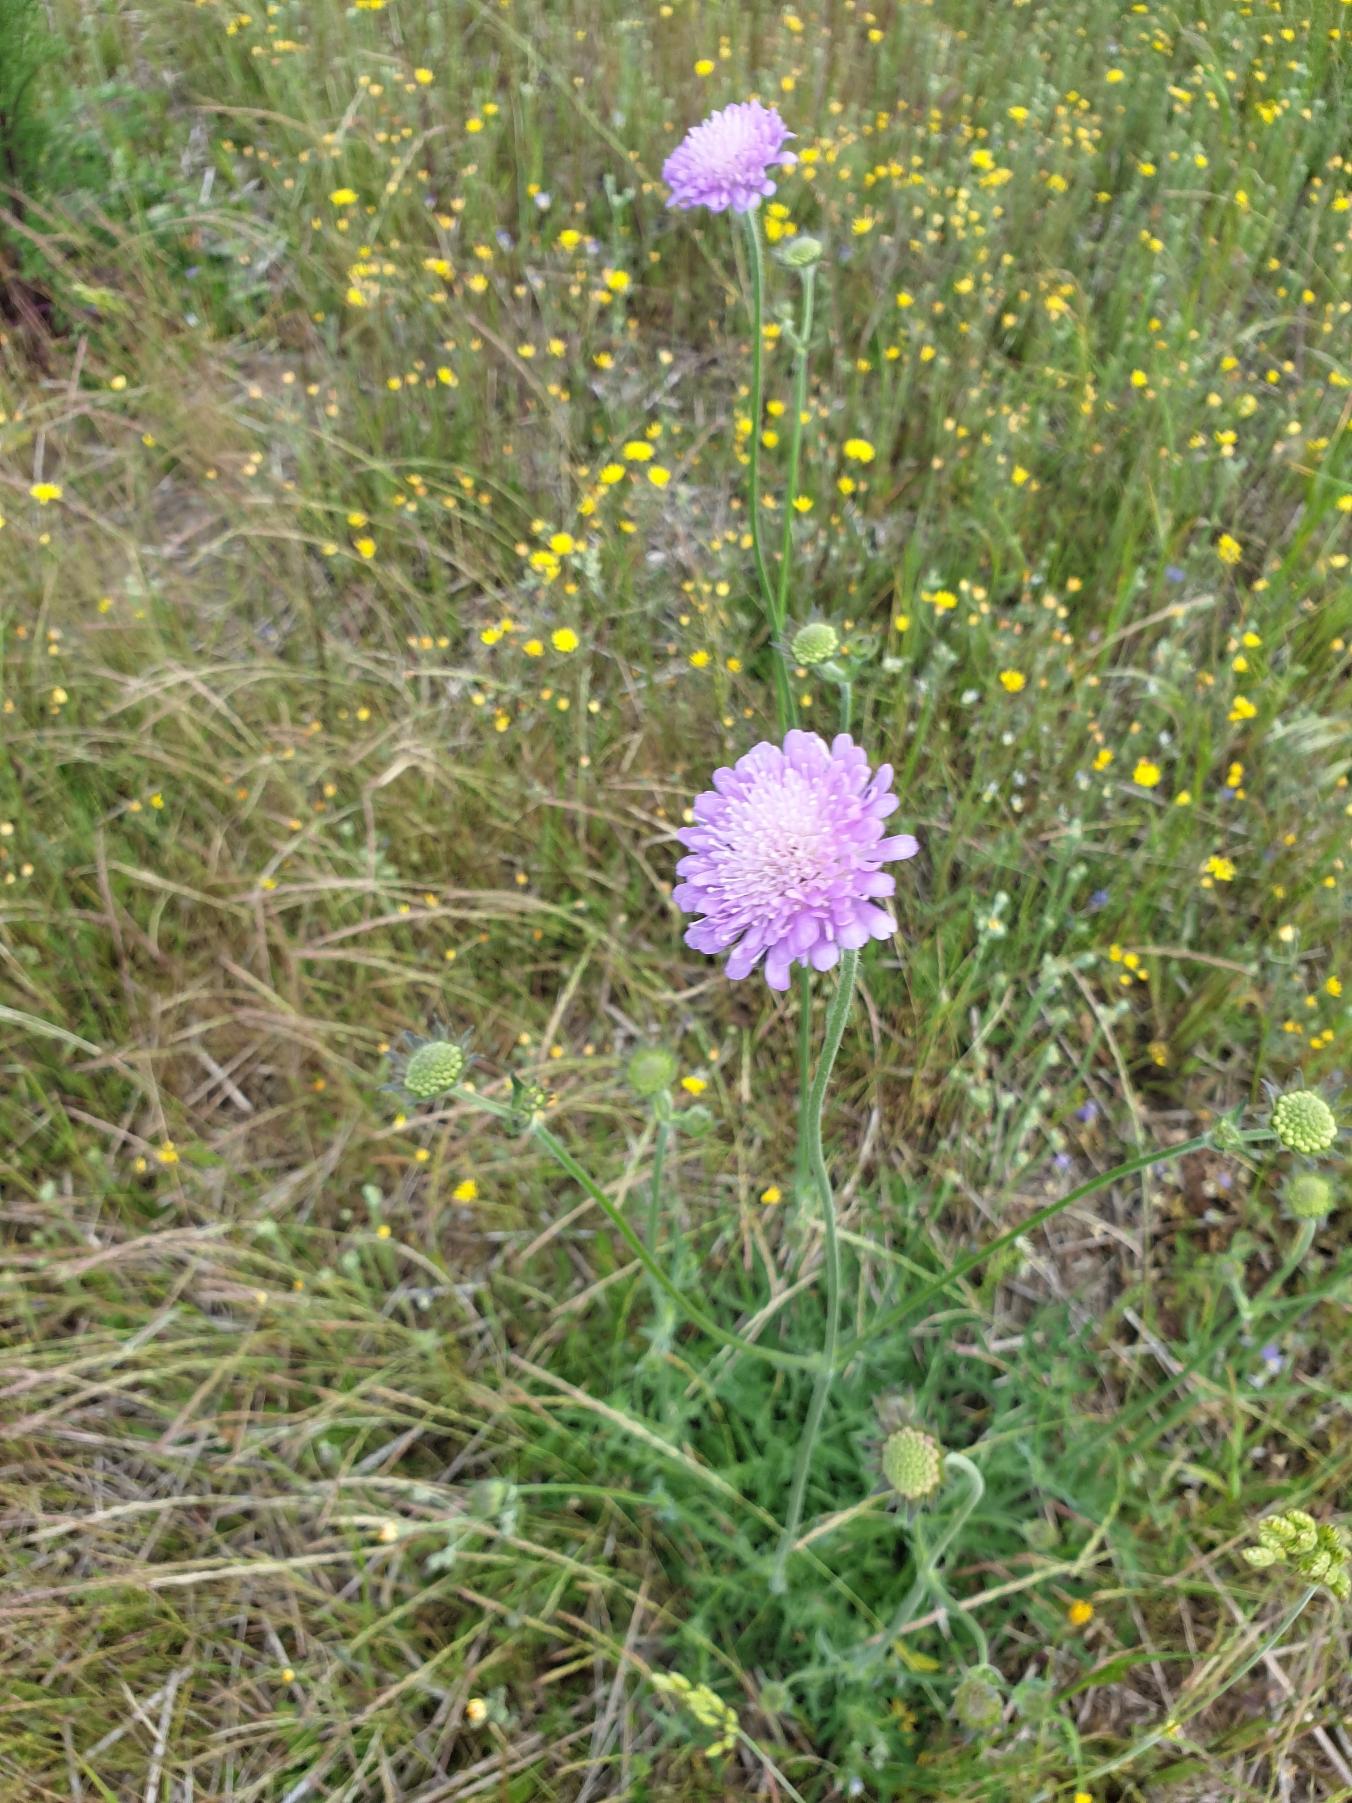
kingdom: Plantae
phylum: Tracheophyta
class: Magnoliopsida
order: Dipsacales
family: Caprifoliaceae
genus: Knautia
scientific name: Knautia arvensis
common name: Blåhat
